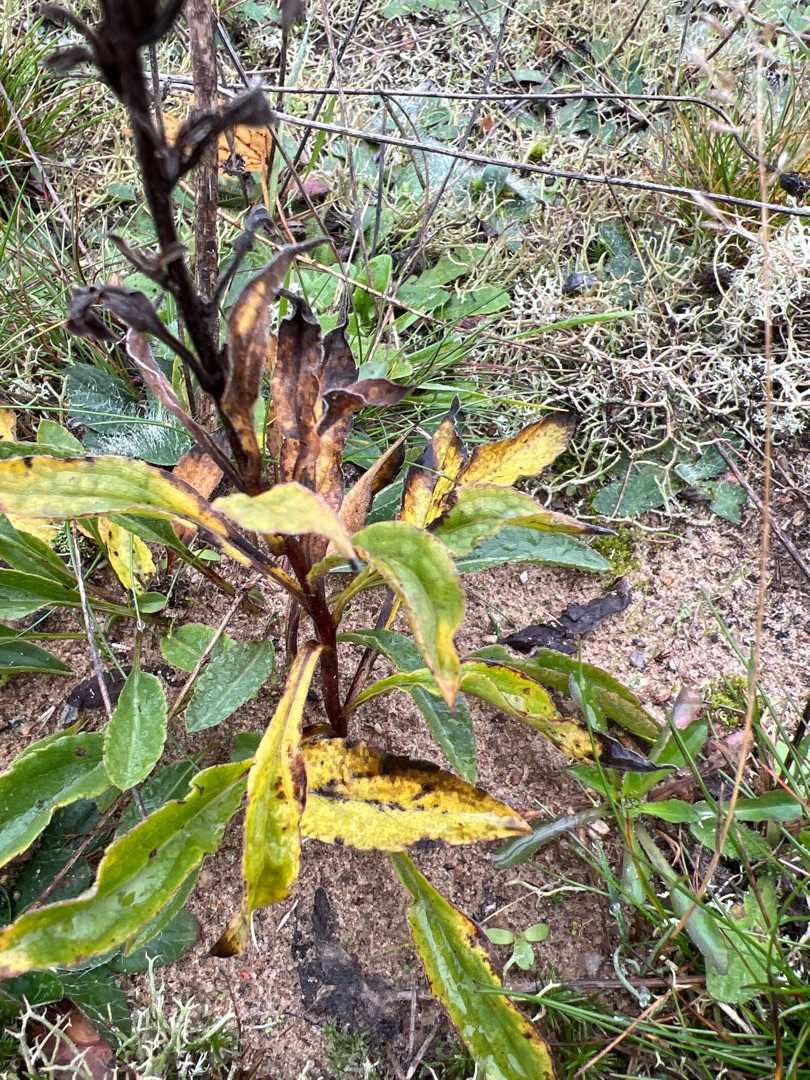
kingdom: Plantae
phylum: Tracheophyta
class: Magnoliopsida
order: Asterales
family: Asteraceae
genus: Solidago
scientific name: Solidago virgaurea
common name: Almindelig gyldenris
